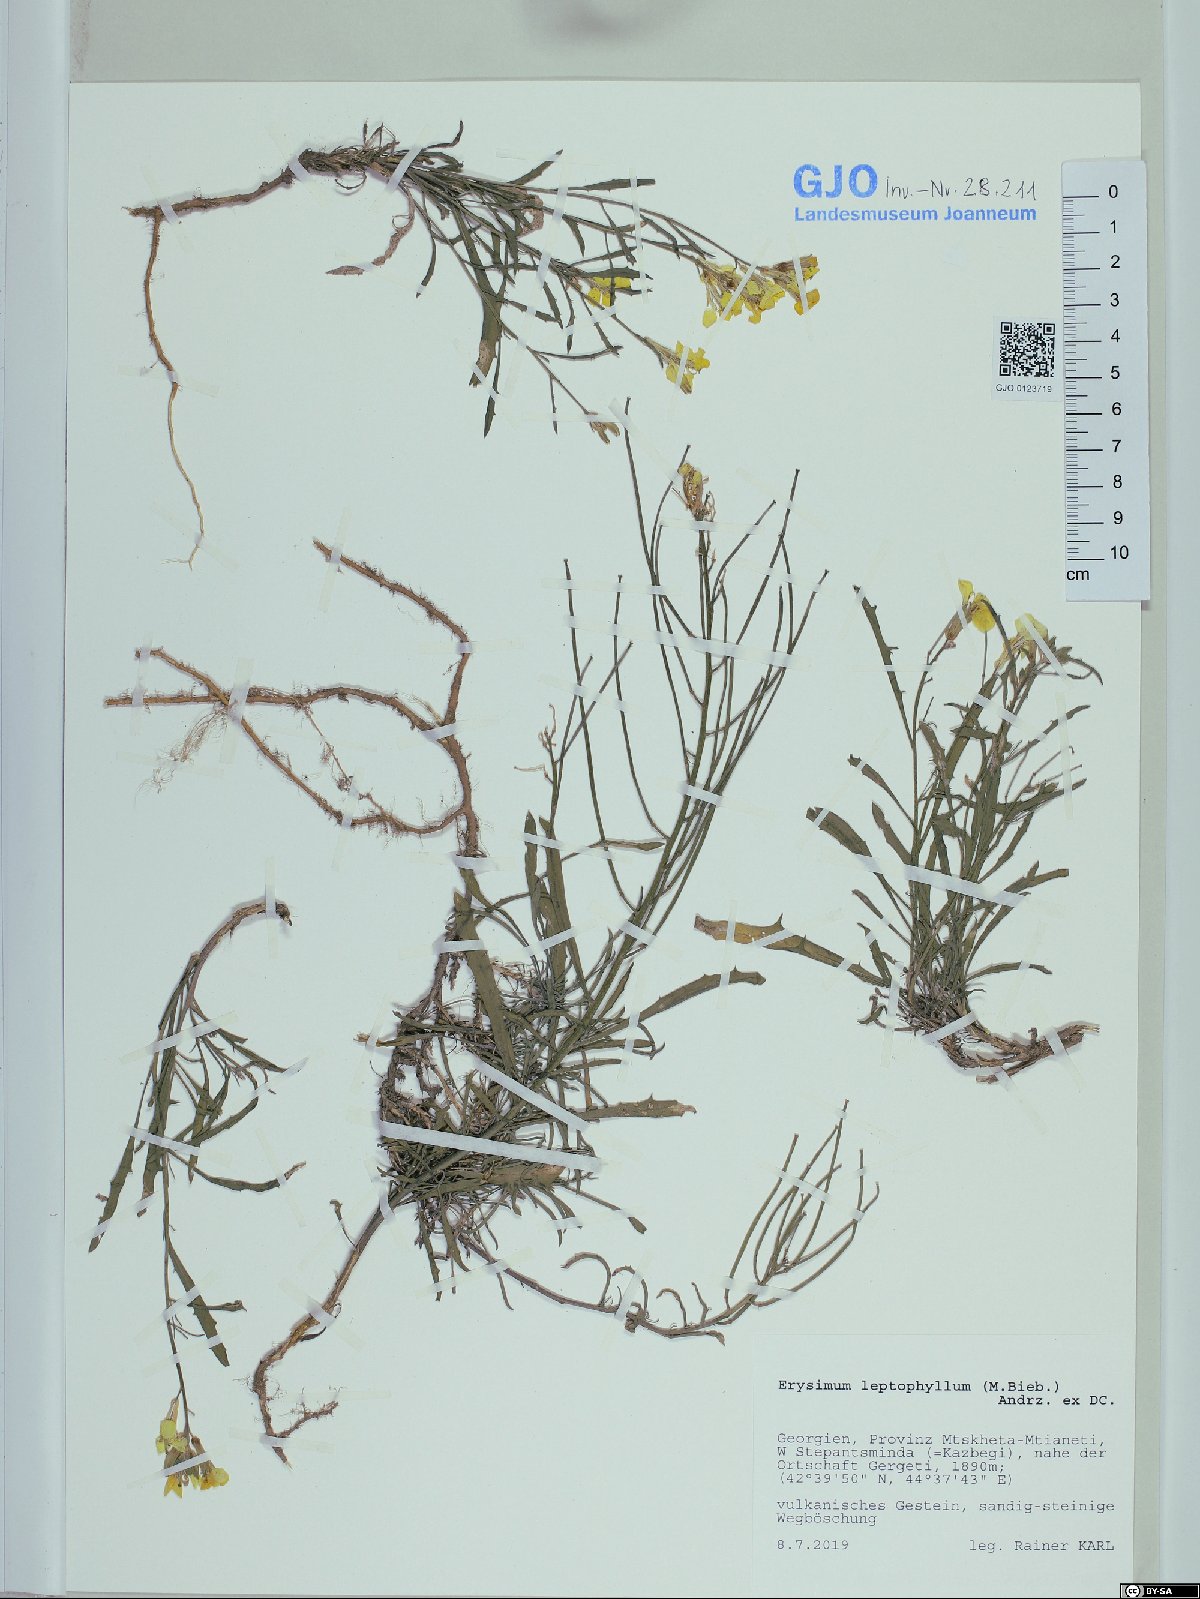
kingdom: Plantae
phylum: Tracheophyta
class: Magnoliopsida
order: Brassicales
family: Brassicaceae
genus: Erysimum
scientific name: Erysimum leptophyllum
